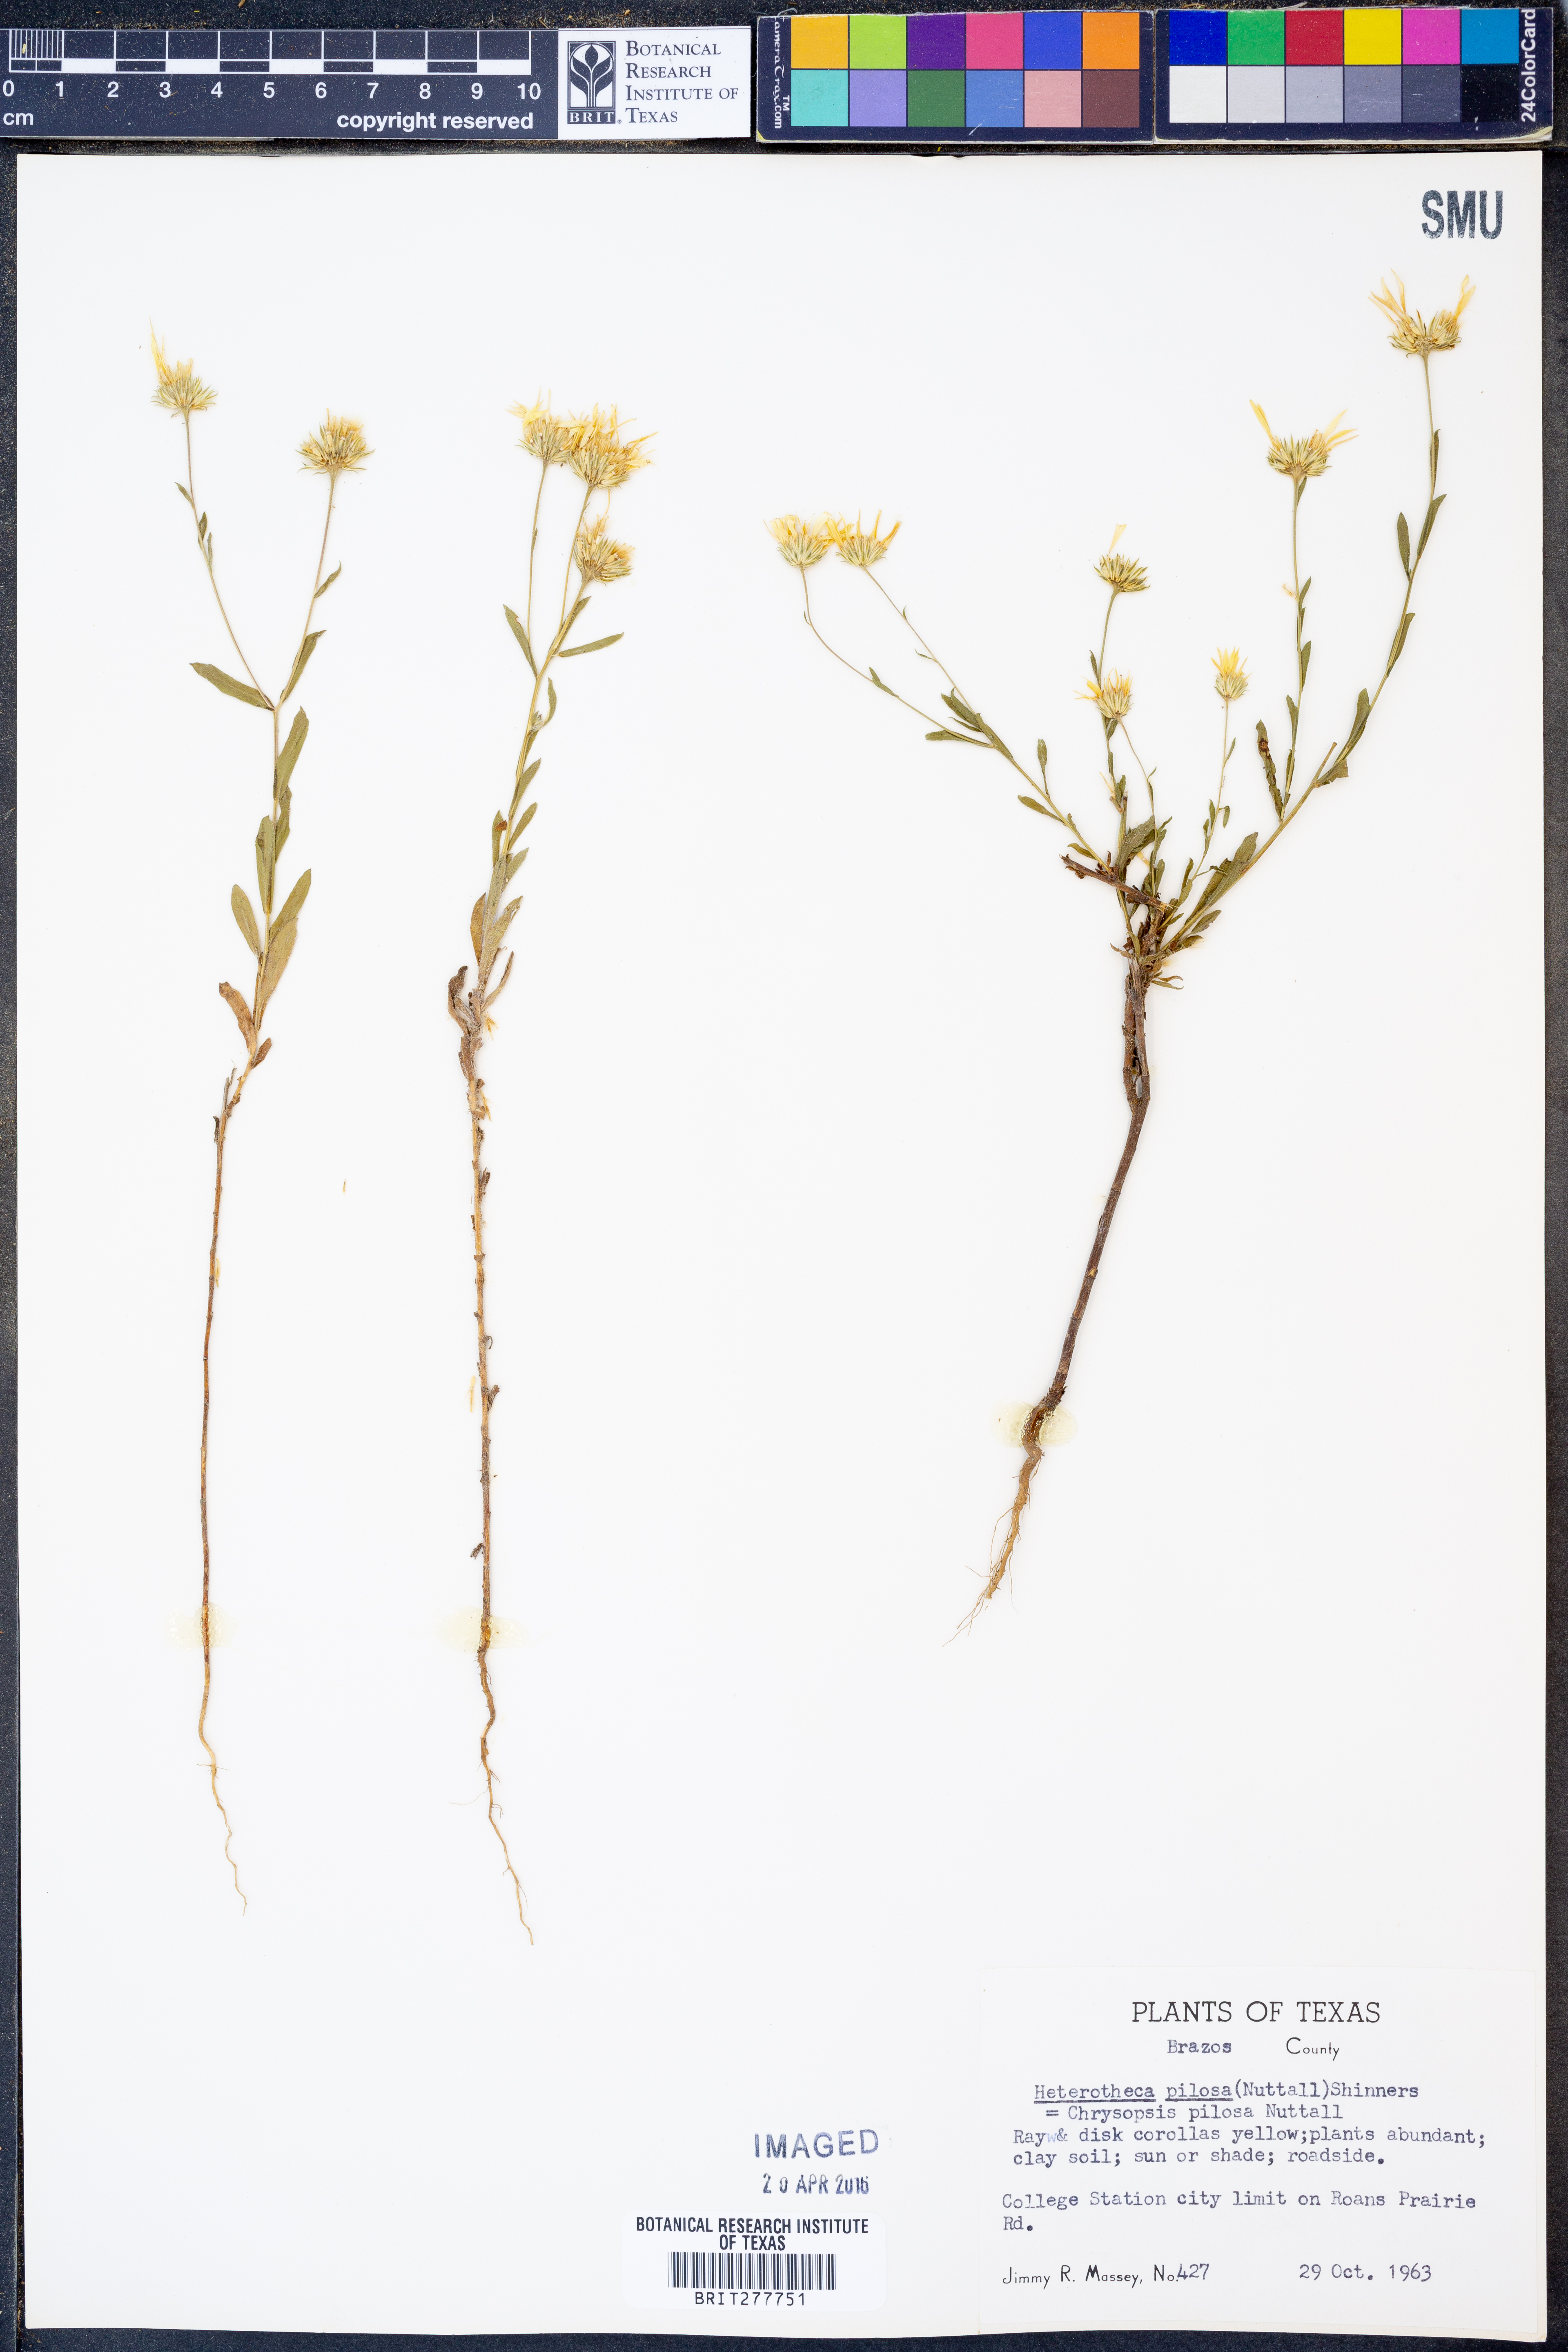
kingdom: Plantae
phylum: Tracheophyta
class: Magnoliopsida
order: Asterales
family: Asteraceae
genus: Bradburia
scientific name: Bradburia pilosa
